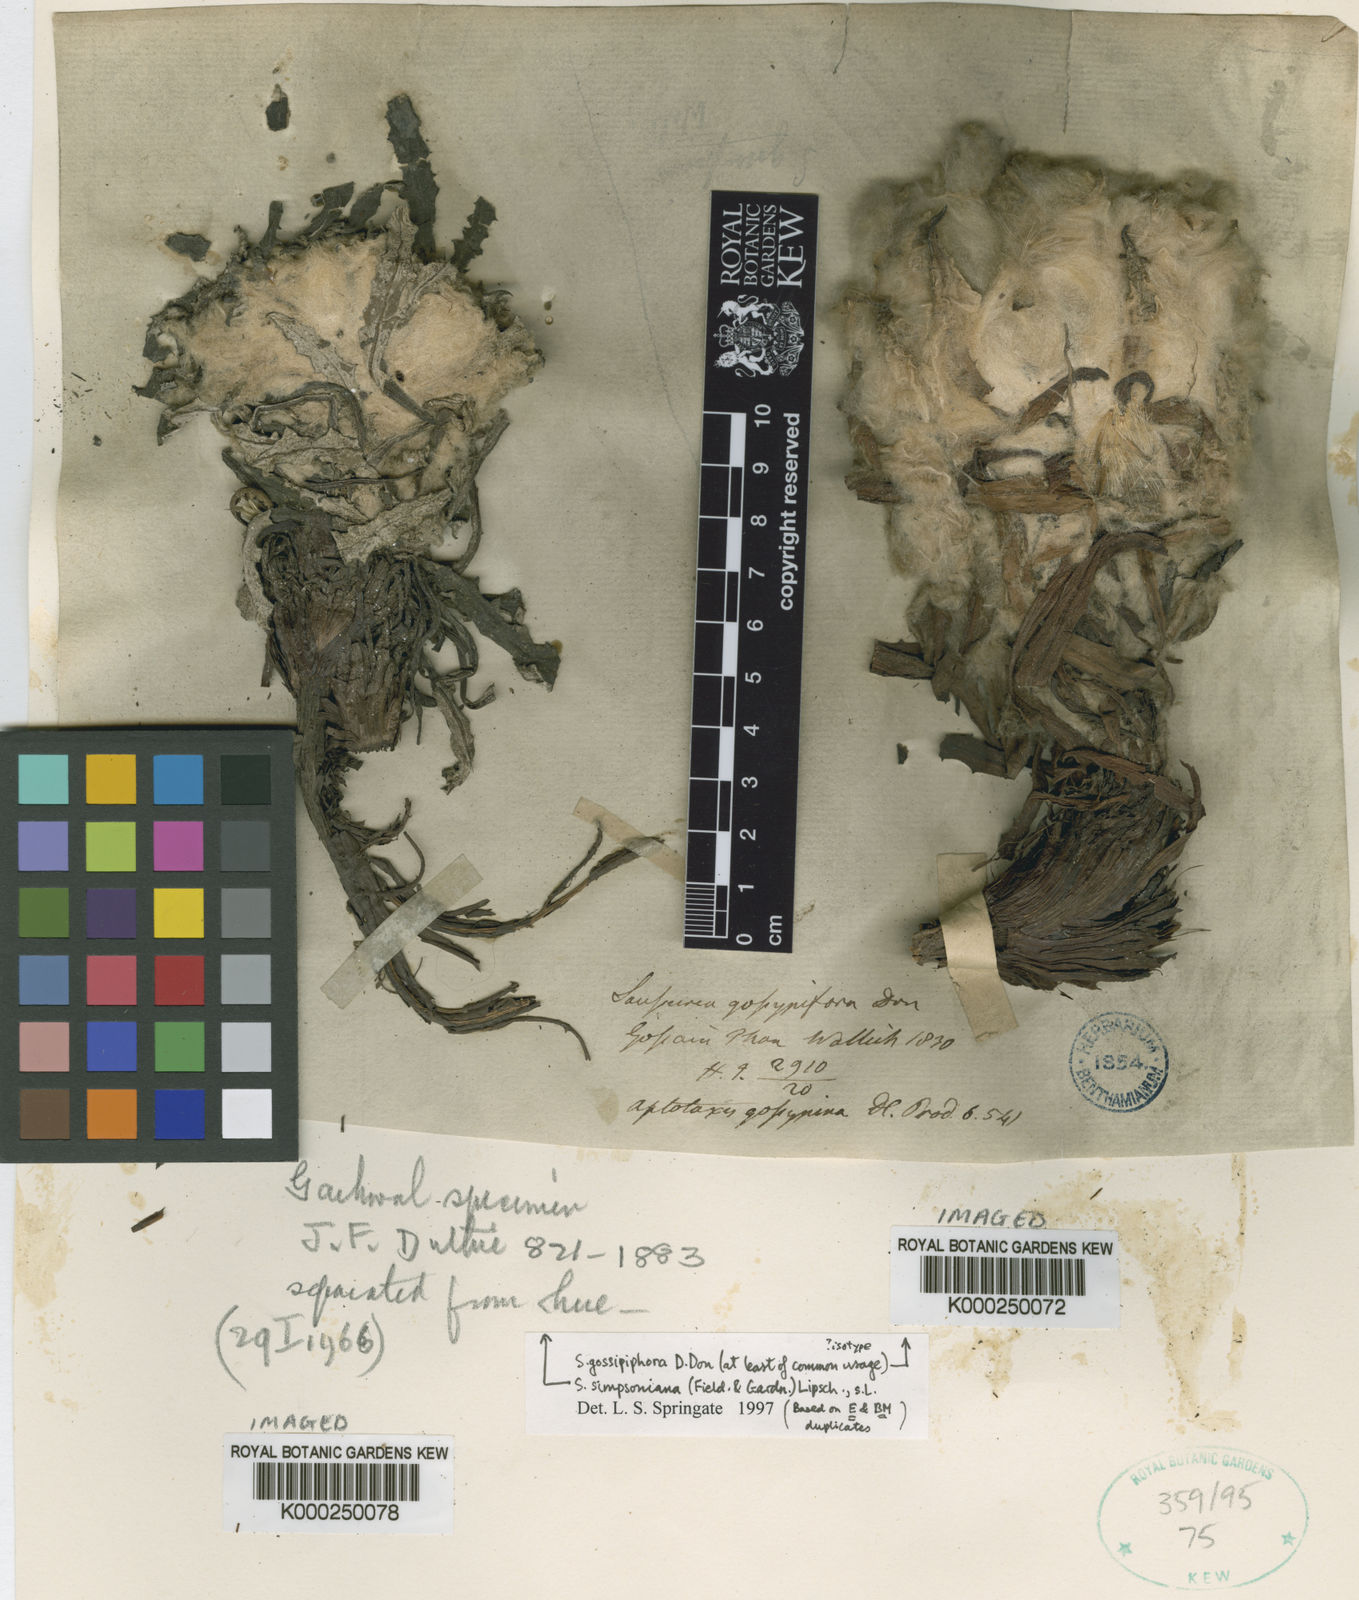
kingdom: Plantae
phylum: Tracheophyta
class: Magnoliopsida
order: Asterales
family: Asteraceae
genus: Saussurea
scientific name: Saussurea gossipiphora
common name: Saussurea
